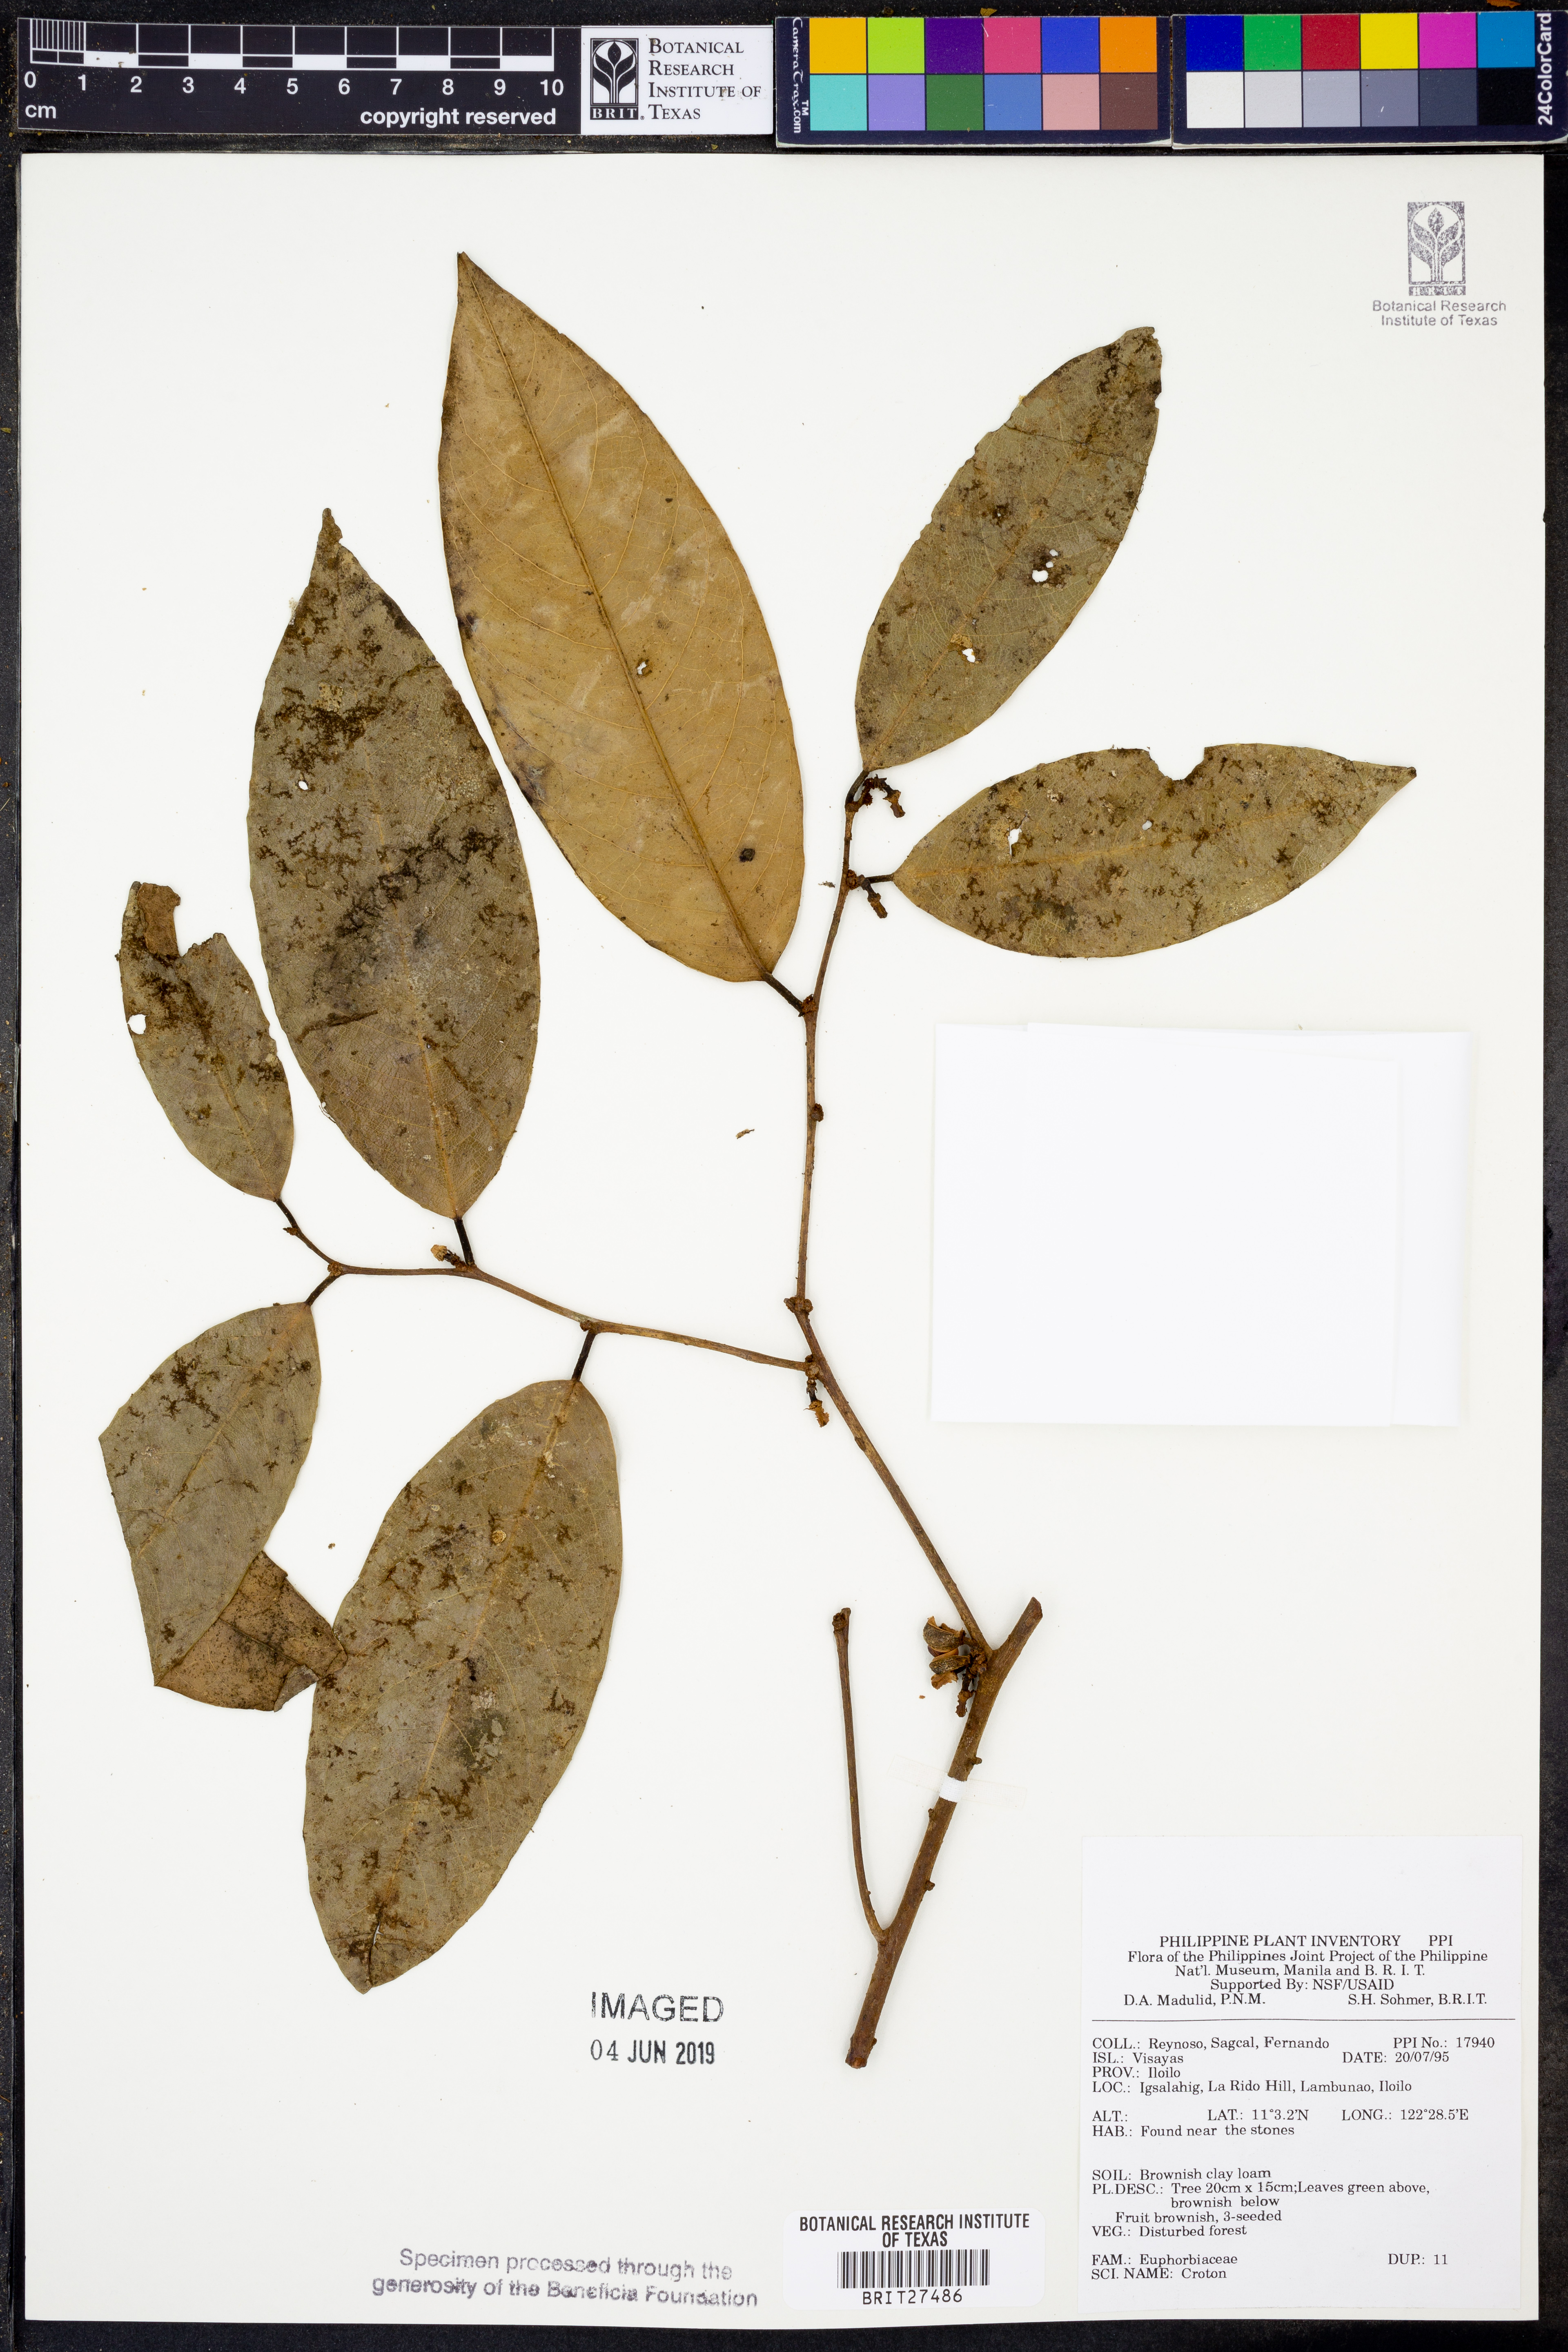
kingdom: Plantae
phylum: Tracheophyta
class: Magnoliopsida
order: Malpighiales
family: Euphorbiaceae
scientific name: Euphorbiaceae
